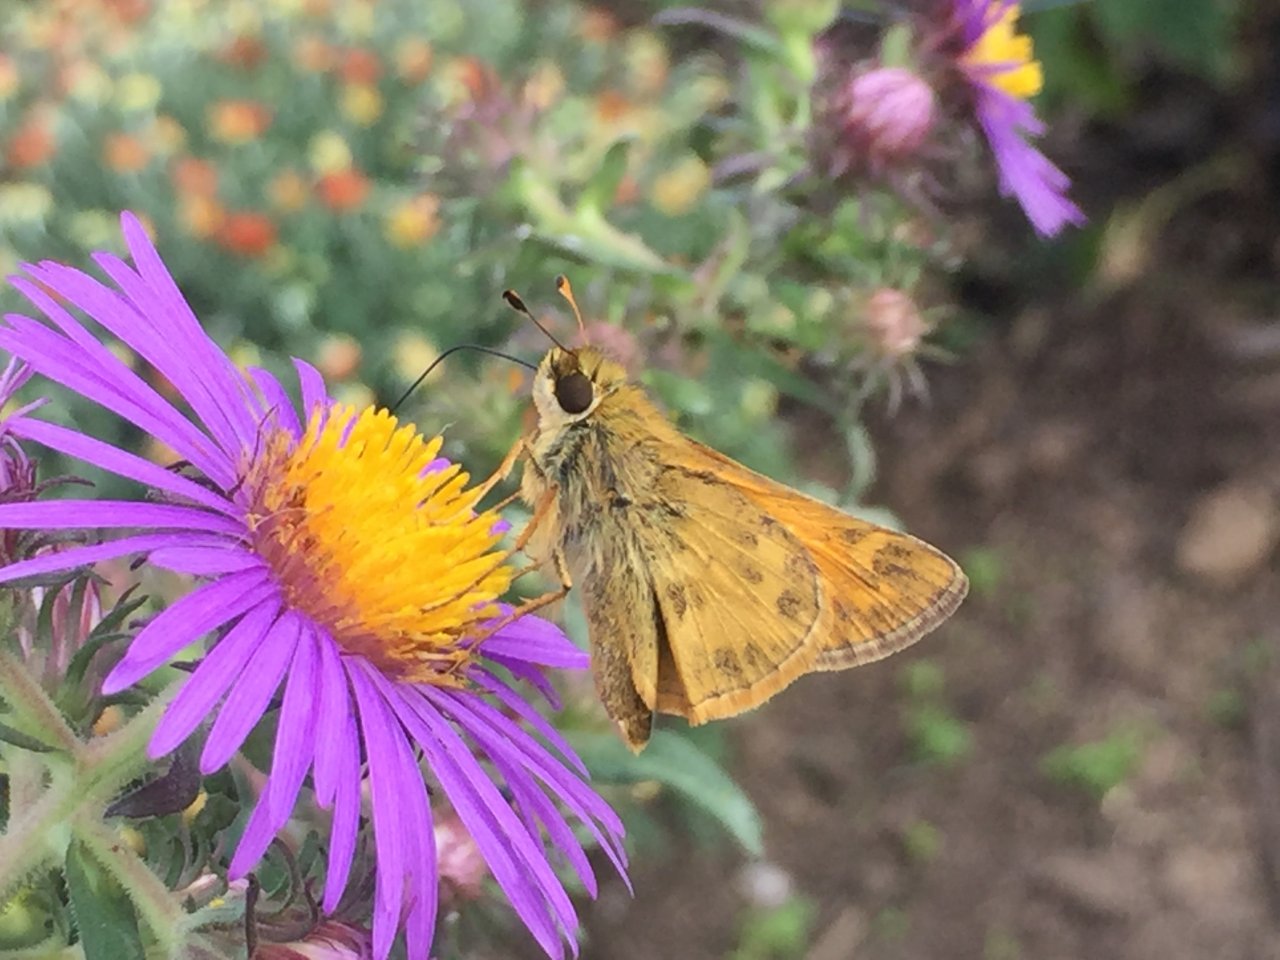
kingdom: Animalia
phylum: Arthropoda
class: Insecta
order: Lepidoptera
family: Hesperiidae
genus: Atalopedes
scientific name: Atalopedes campestris
